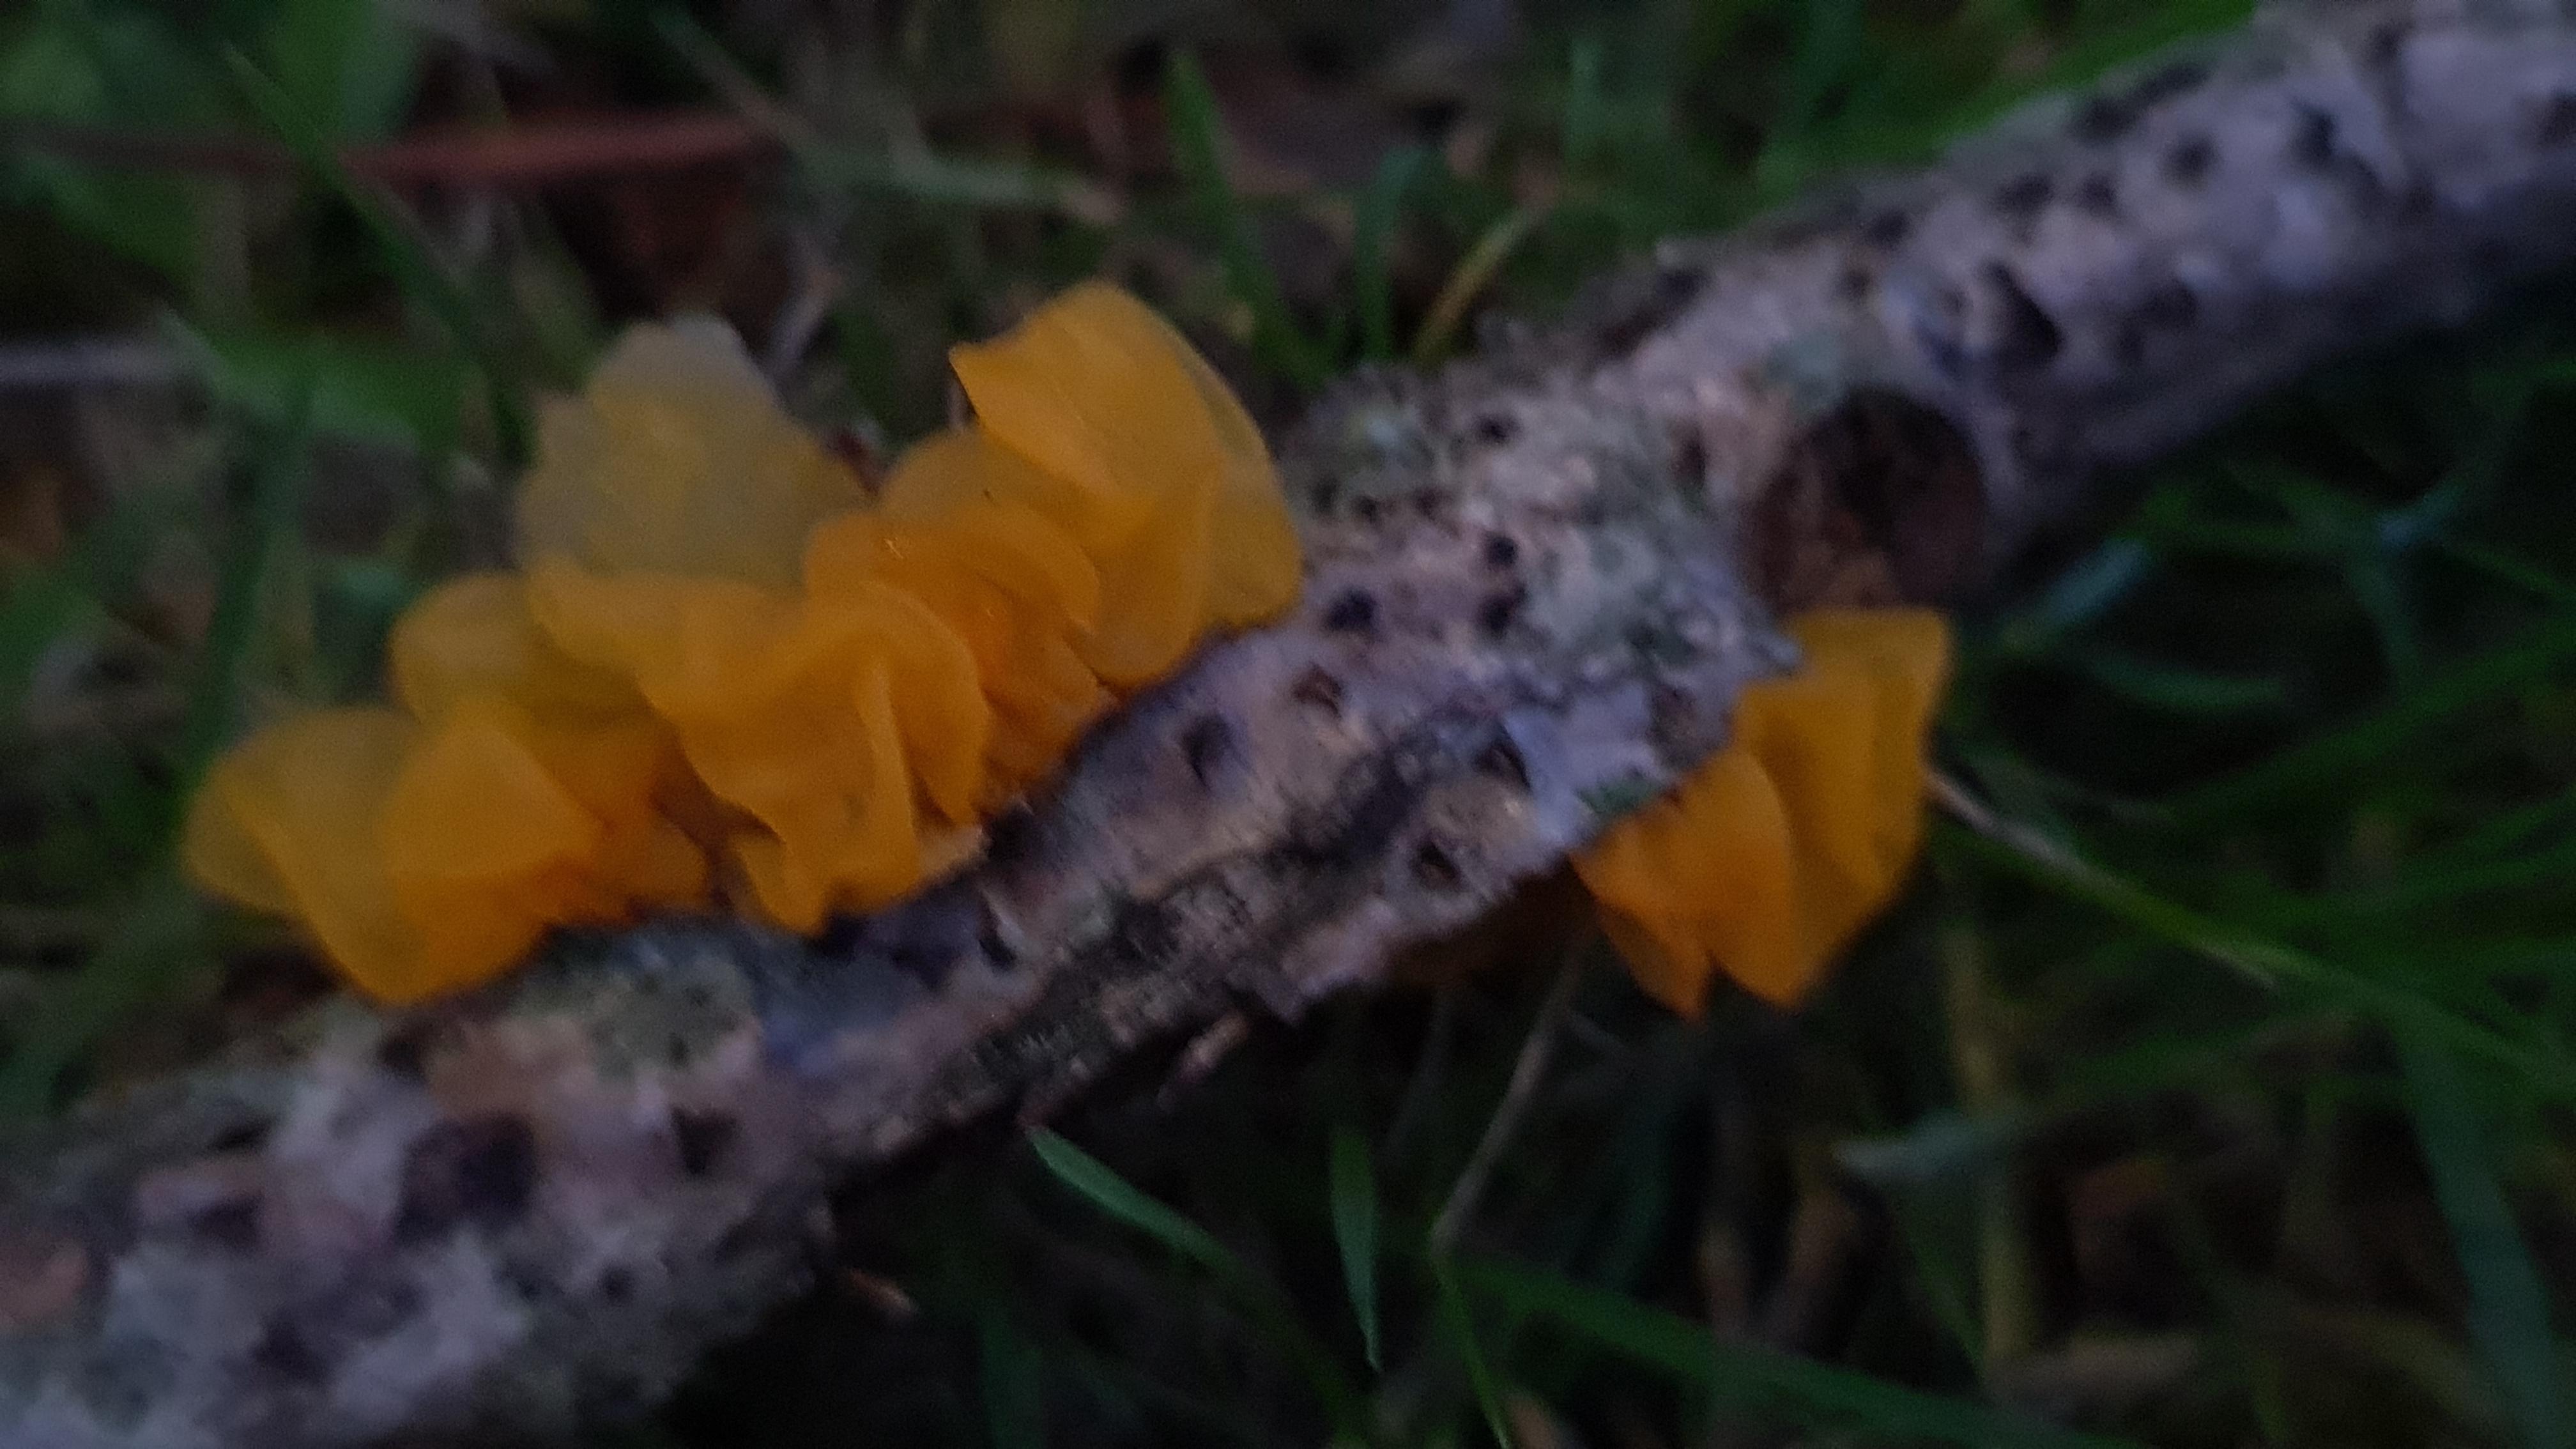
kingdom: Fungi
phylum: Basidiomycota
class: Tremellomycetes
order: Tremellales
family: Tremellaceae
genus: Tremella
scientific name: Tremella mesenterica
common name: gul bævresvamp
